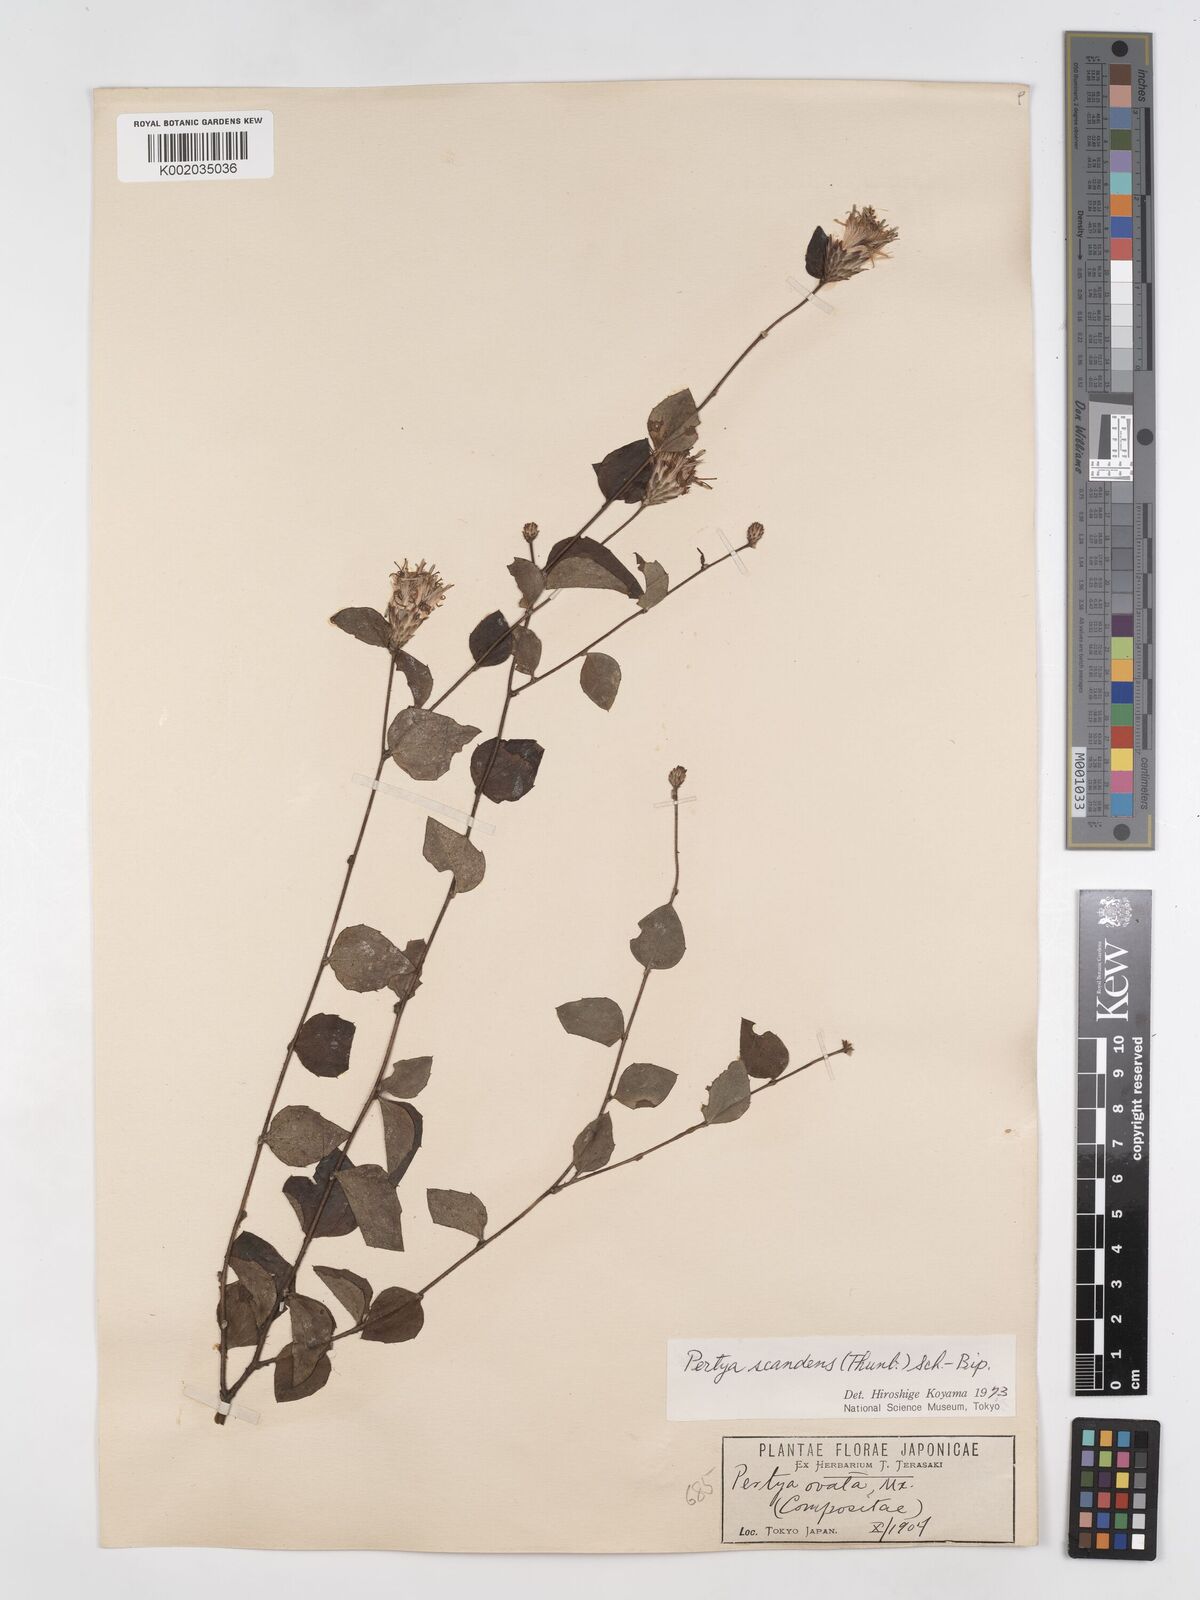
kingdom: Plantae
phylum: Tracheophyta
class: Magnoliopsida
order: Asterales
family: Asteraceae
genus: Pertya
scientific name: Pertya scandens
